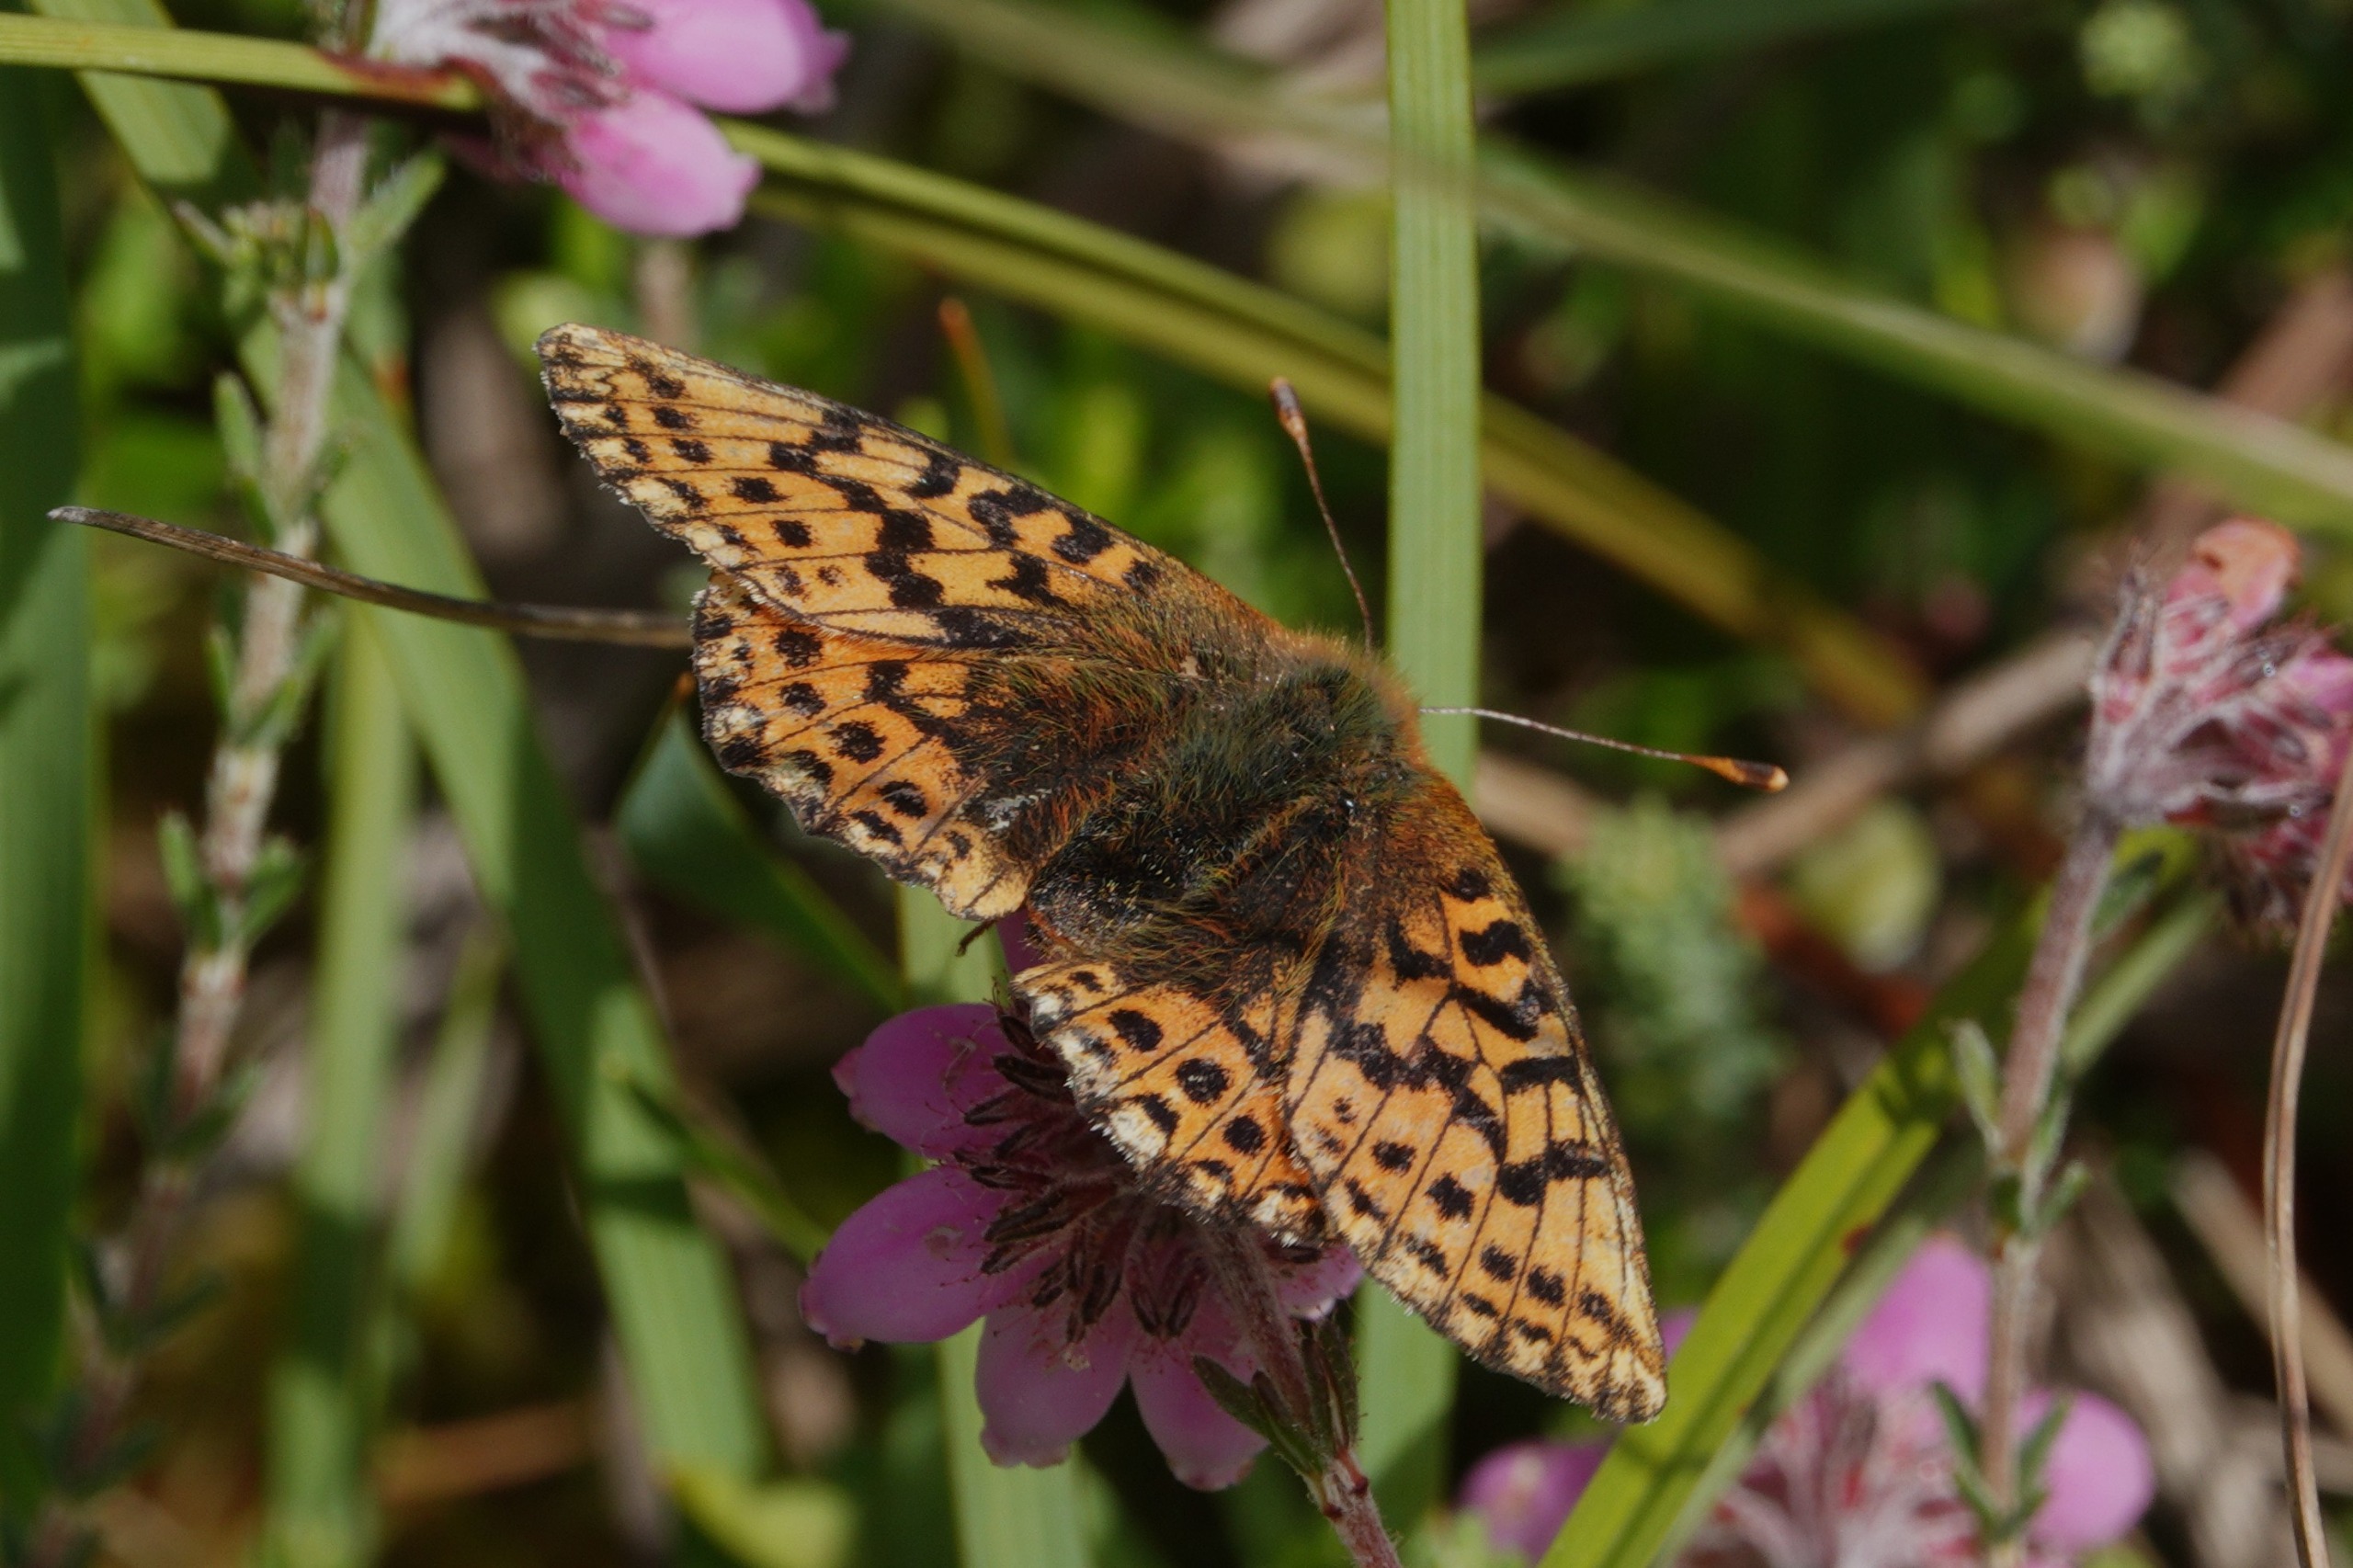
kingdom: Animalia
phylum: Arthropoda
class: Insecta
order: Lepidoptera
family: Nymphalidae
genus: Boloria
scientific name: Boloria aquilonaris
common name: Moseperlemorsommerfugl
